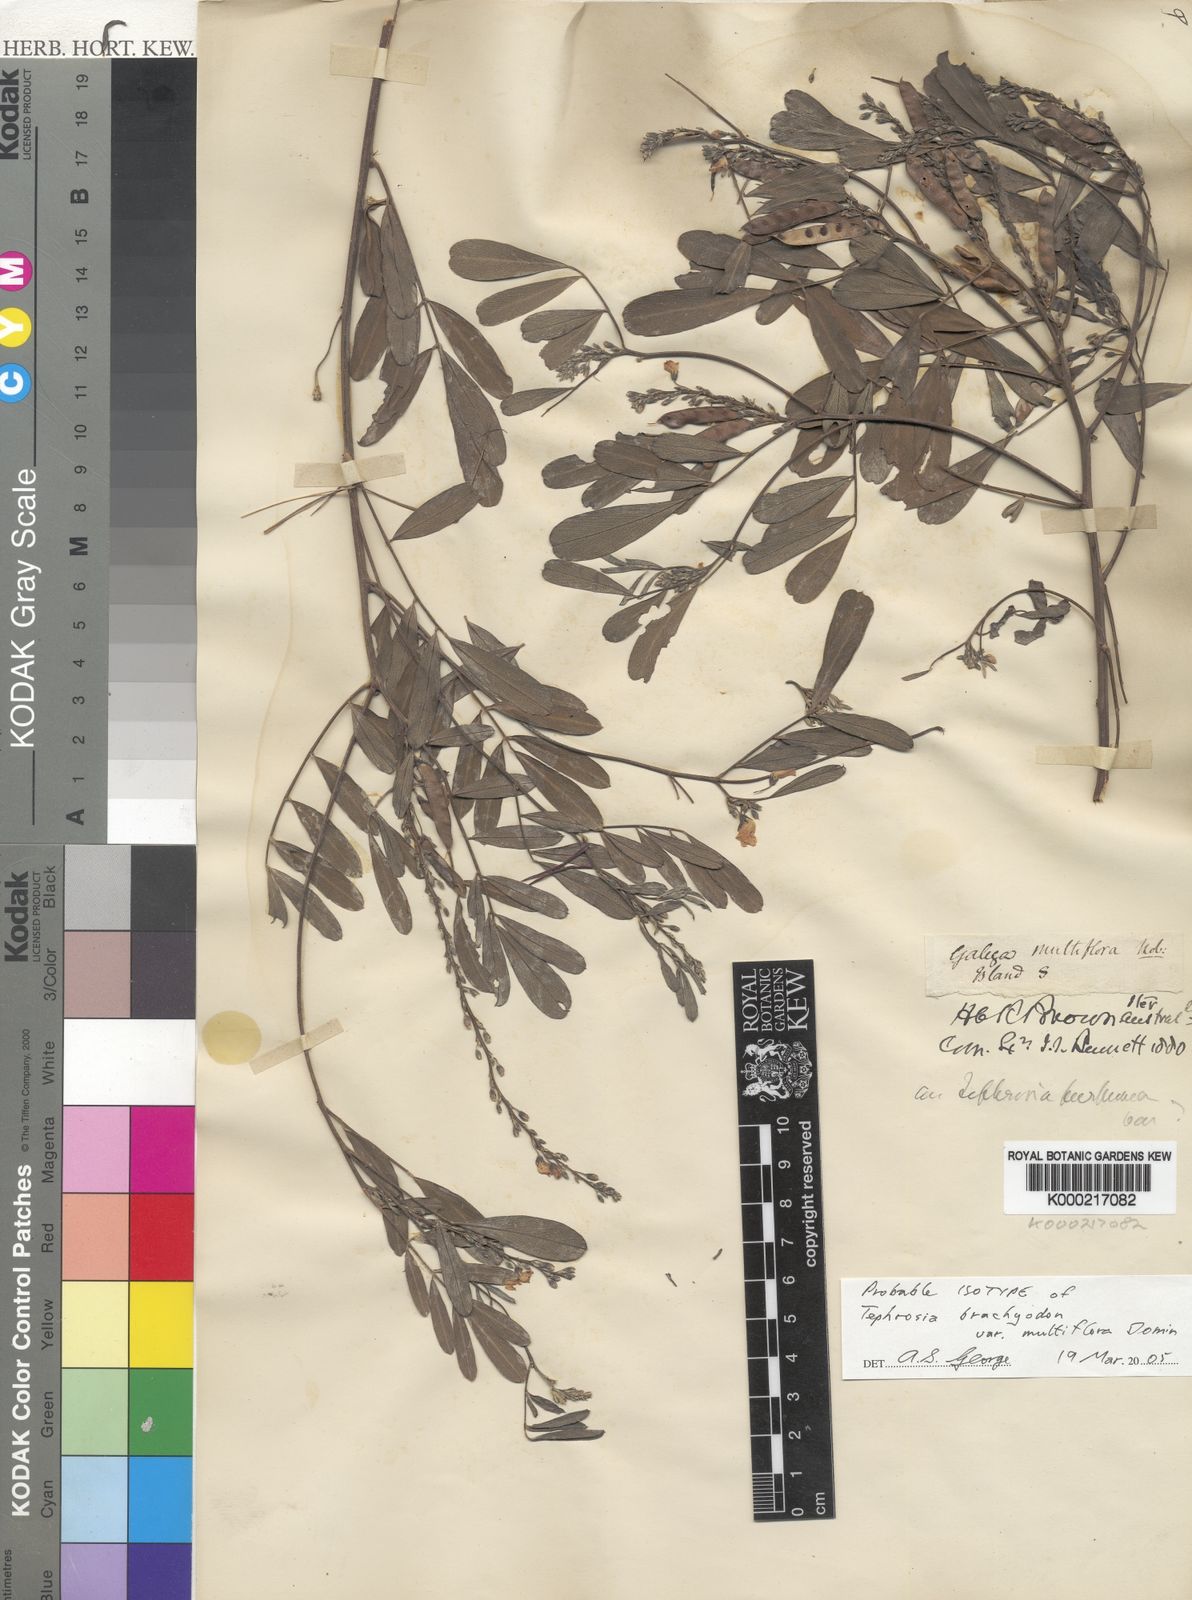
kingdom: Plantae
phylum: Tracheophyta
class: Magnoliopsida
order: Fabales
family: Fabaceae
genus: Tephrosia
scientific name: Tephrosia oligophylla
